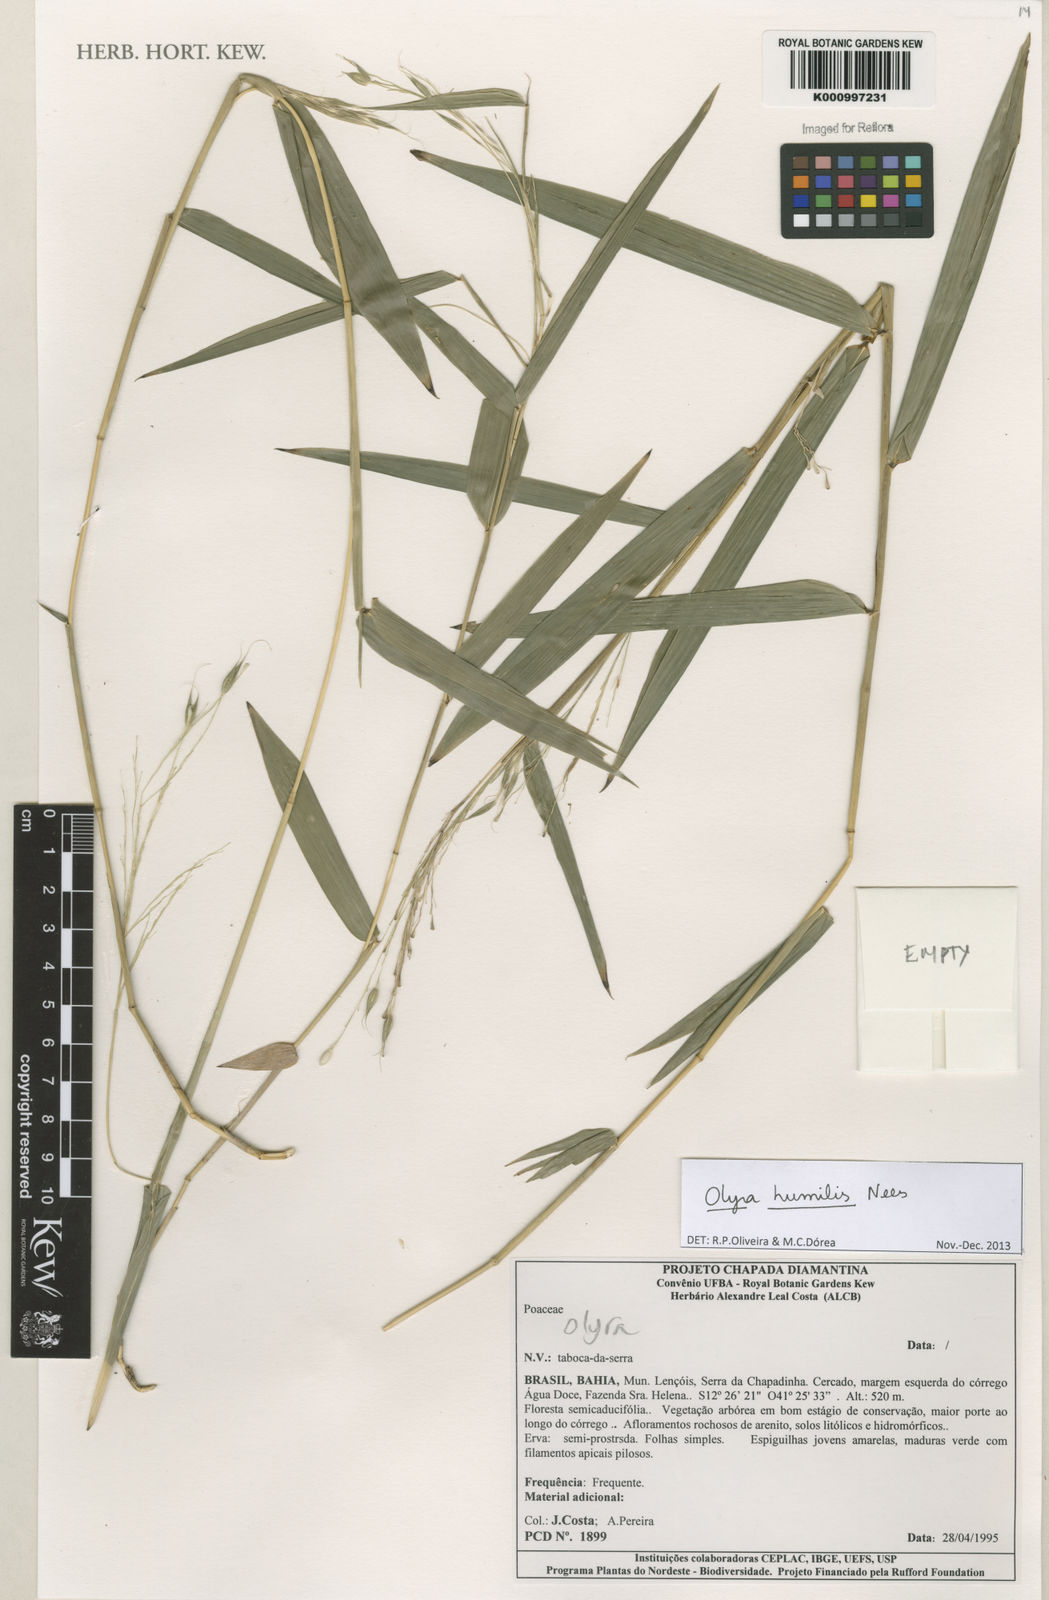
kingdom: Plantae
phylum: Tracheophyta
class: Liliopsida
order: Poales
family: Poaceae
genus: Olyra
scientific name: Olyra humilis
